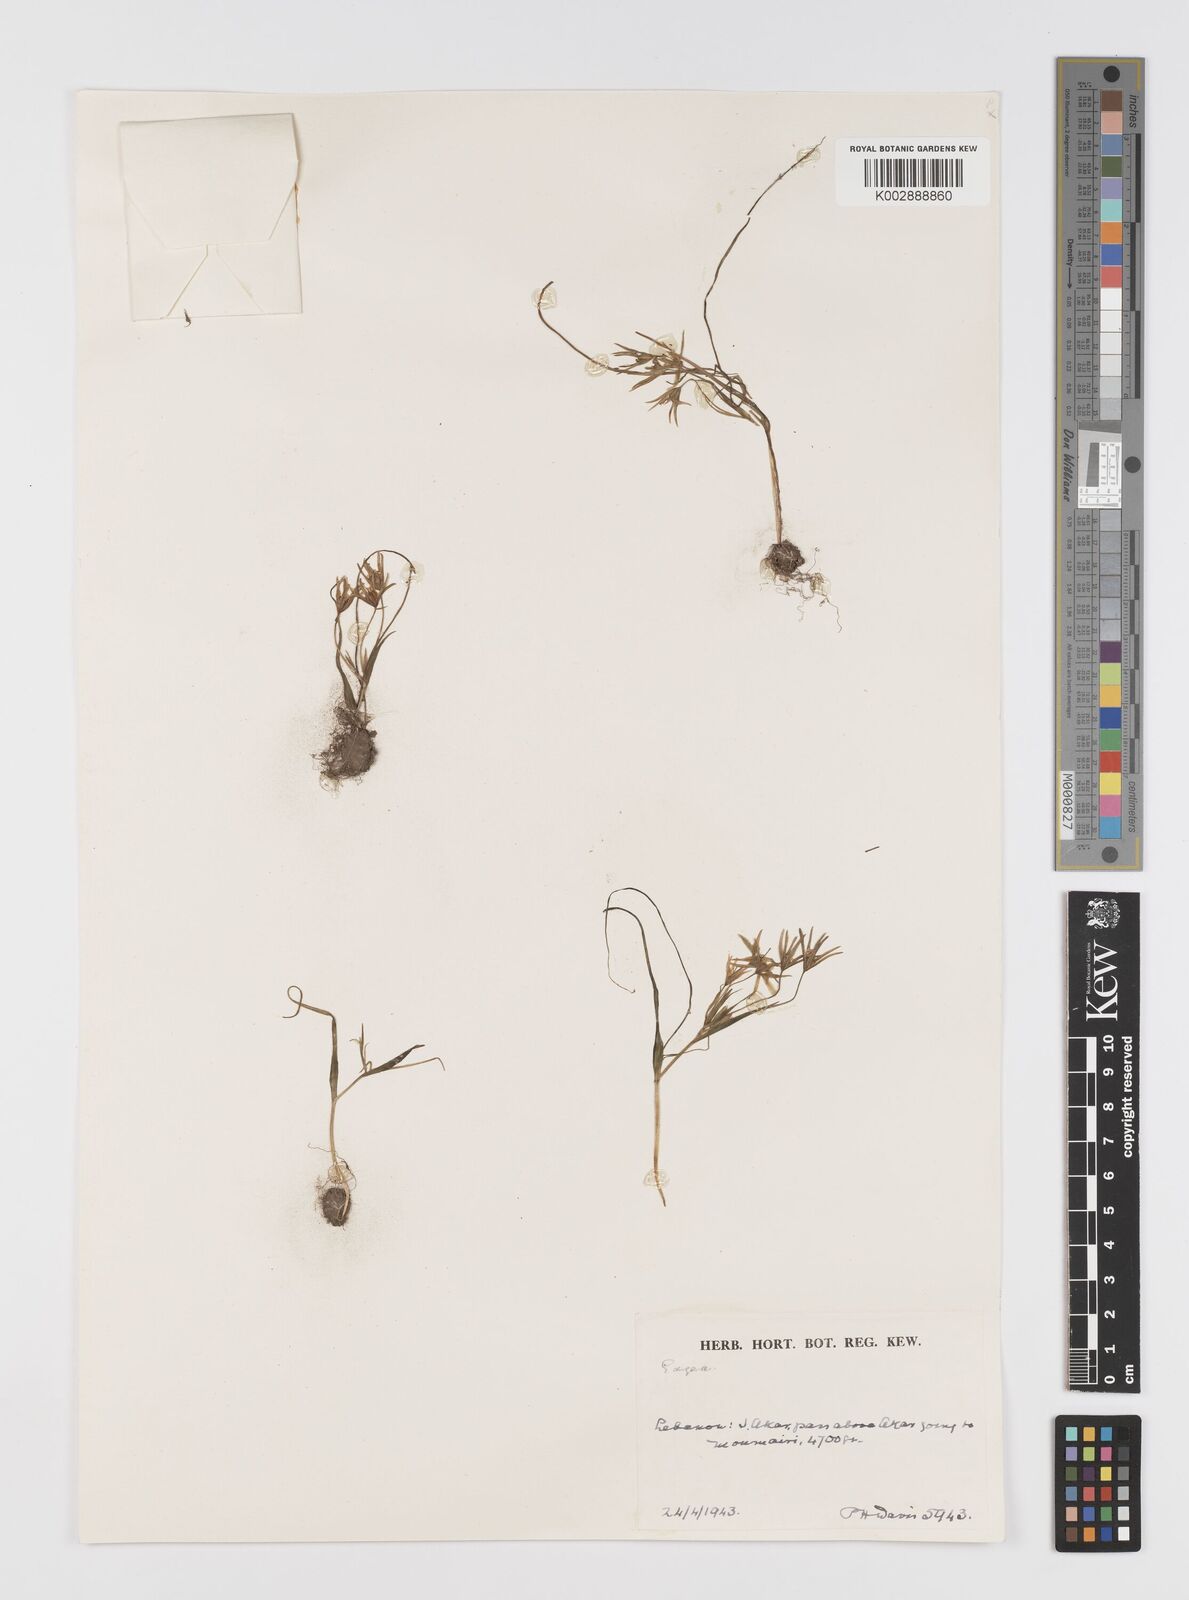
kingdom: Plantae
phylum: Tracheophyta
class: Liliopsida
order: Liliales
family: Liliaceae
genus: Gagea
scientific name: Gagea
